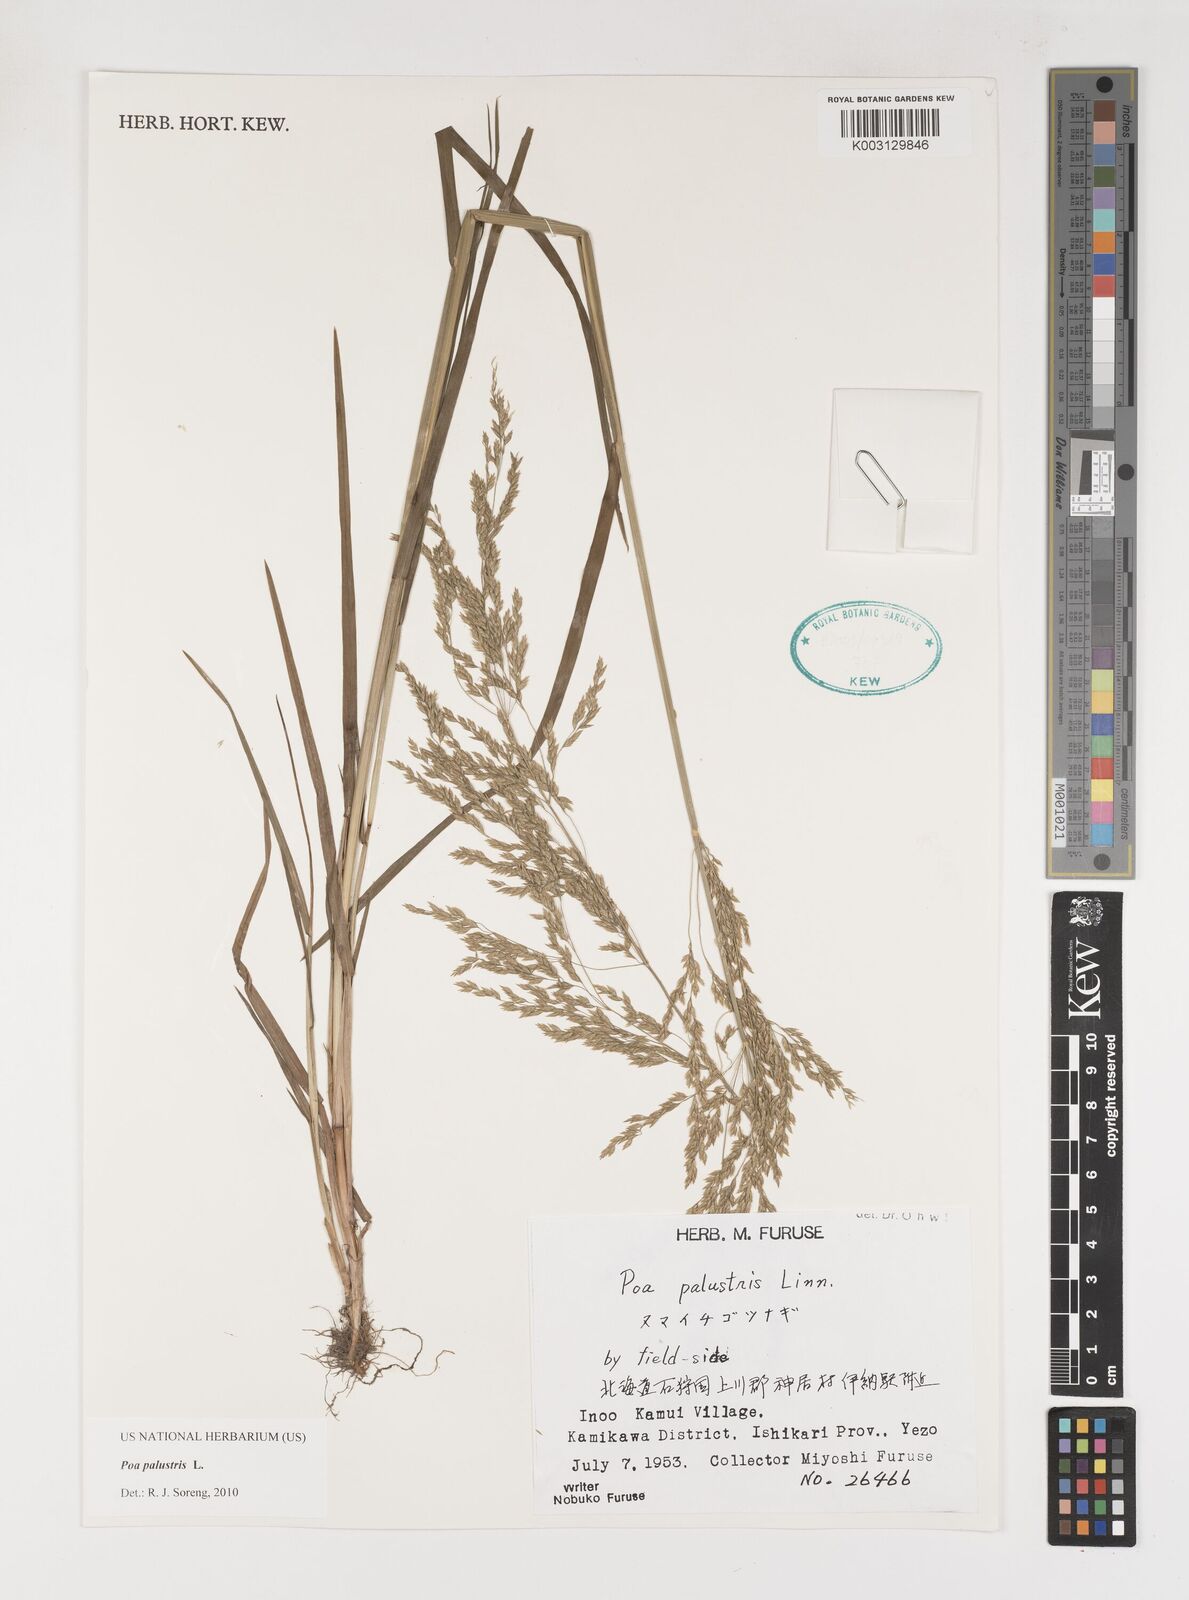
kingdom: Plantae
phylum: Tracheophyta
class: Liliopsida
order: Poales
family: Poaceae
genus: Poa
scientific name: Poa palustris
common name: Swamp meadow-grass
